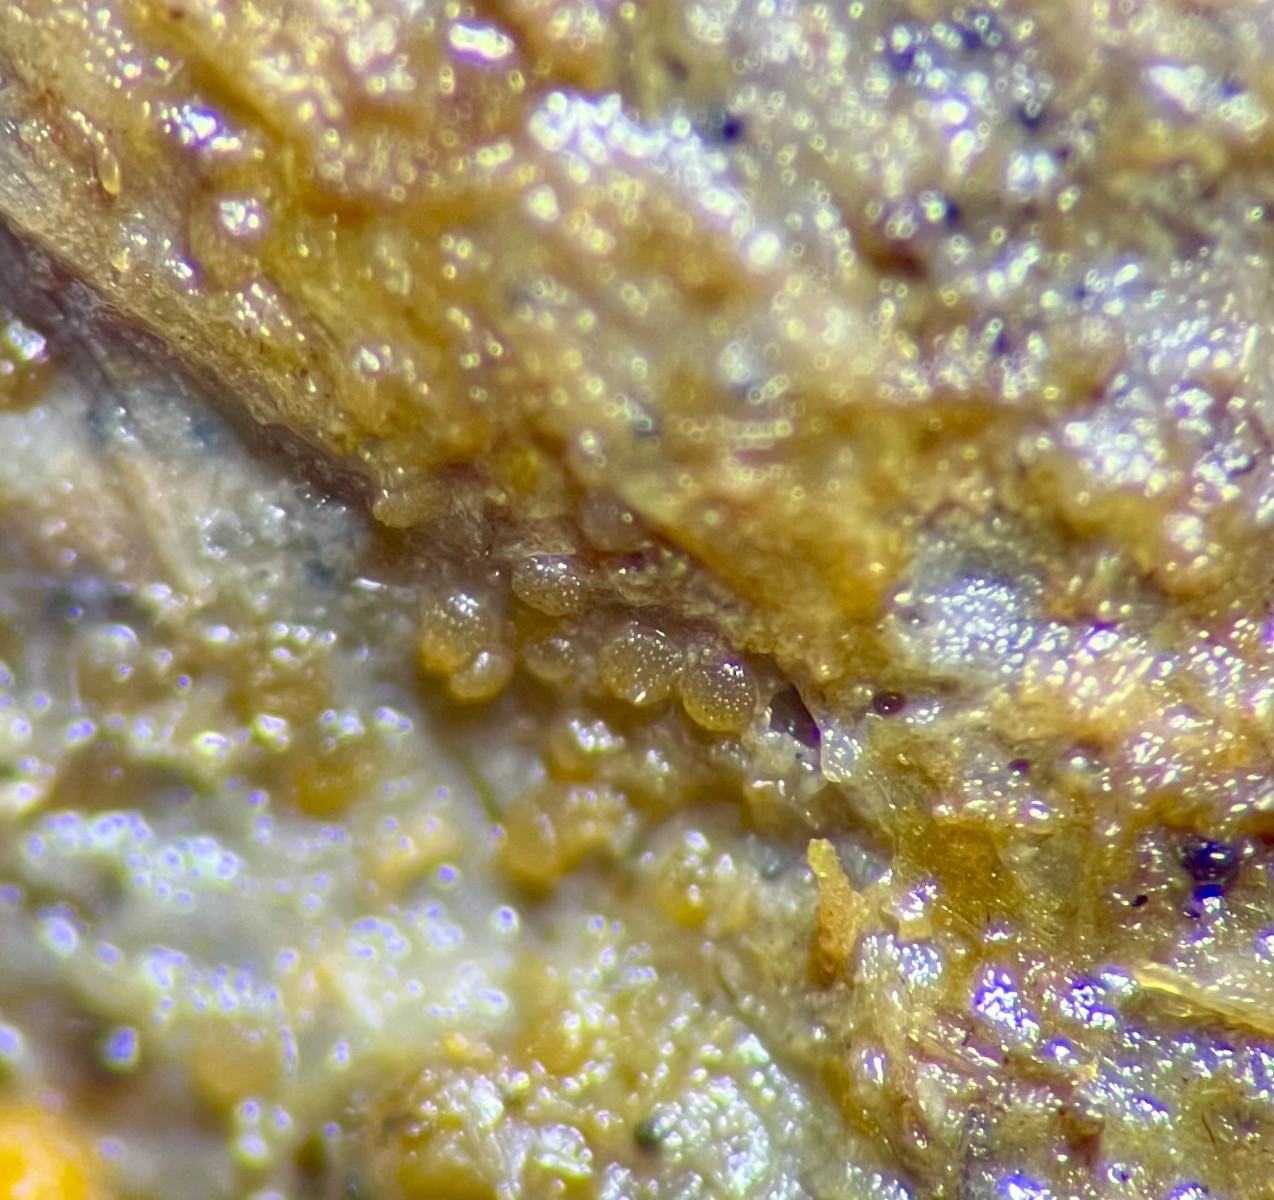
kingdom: Fungi
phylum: Ascomycota
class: Leotiomycetes
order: Thelebolales
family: Thelebolaceae
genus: Thelebolus
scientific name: Thelebolus microsporus
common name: ottesporet småbæger
